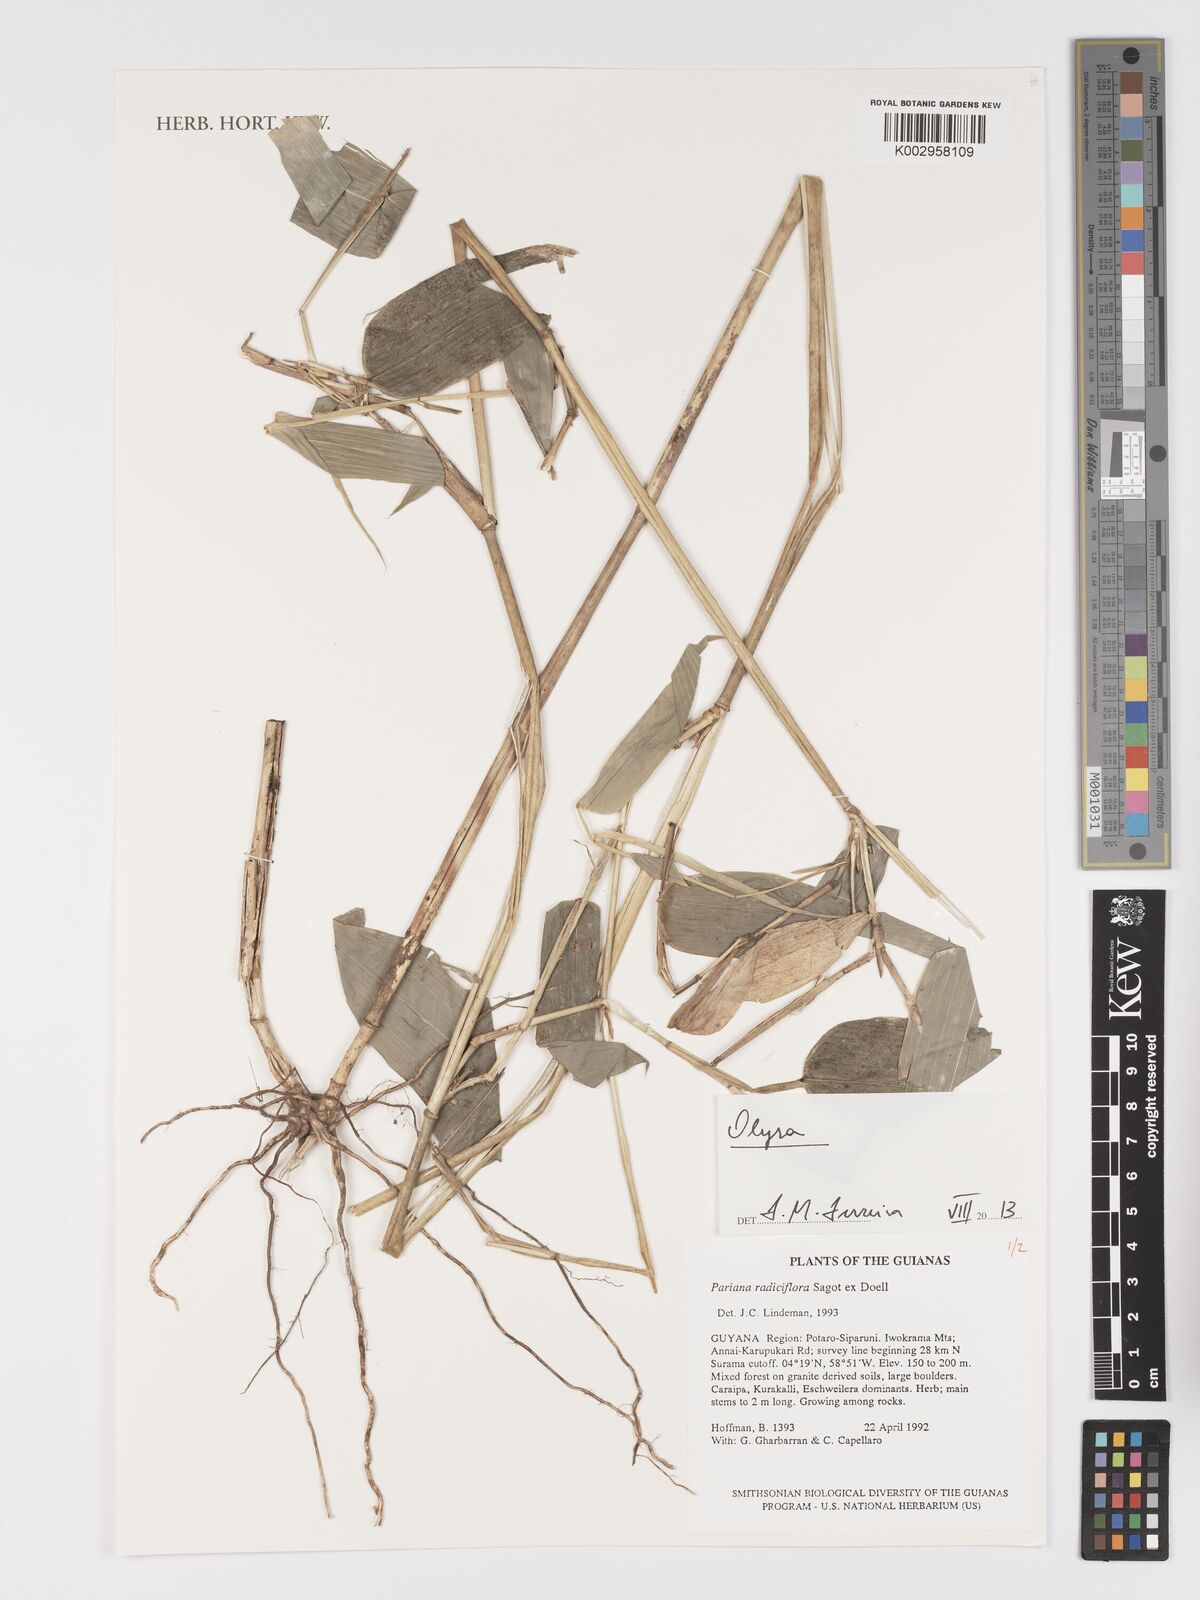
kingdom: Plantae
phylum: Tracheophyta
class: Liliopsida
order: Poales
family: Poaceae
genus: Olyra
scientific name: Olyra
